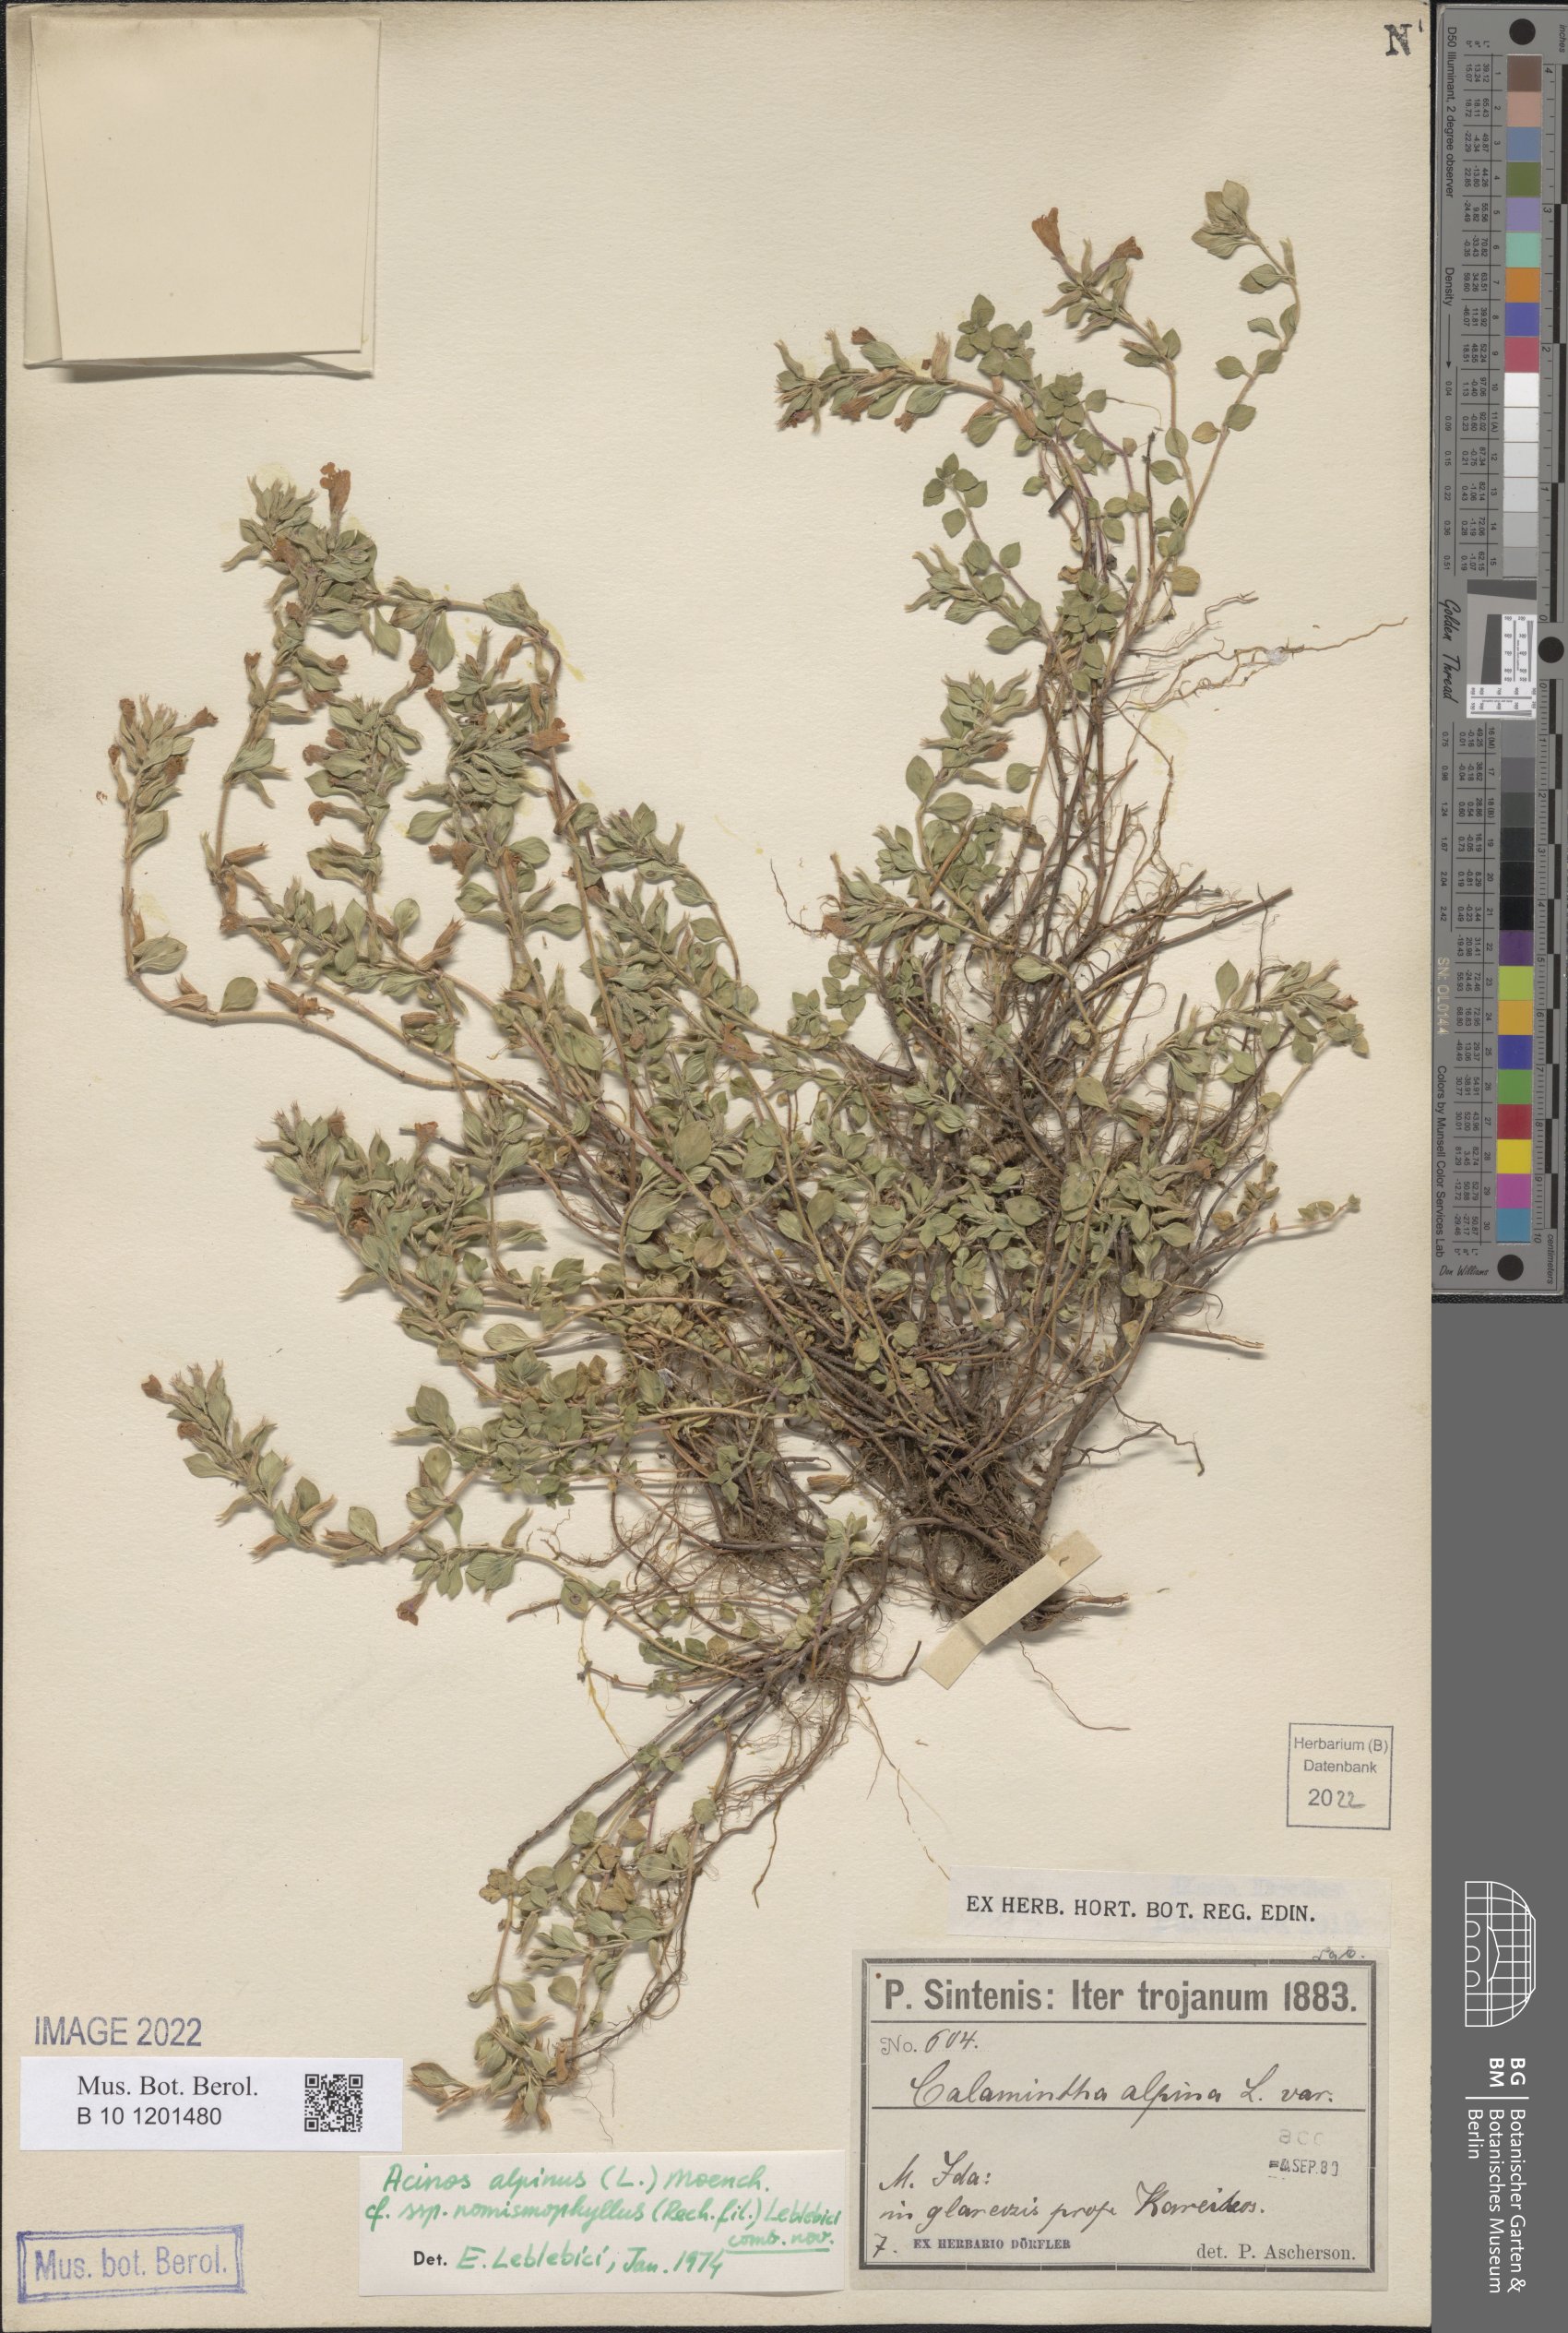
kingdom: Plantae
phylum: Tracheophyta
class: Magnoliopsida
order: Lamiales
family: Lamiaceae
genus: Clinopodium
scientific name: Clinopodium alpinum
